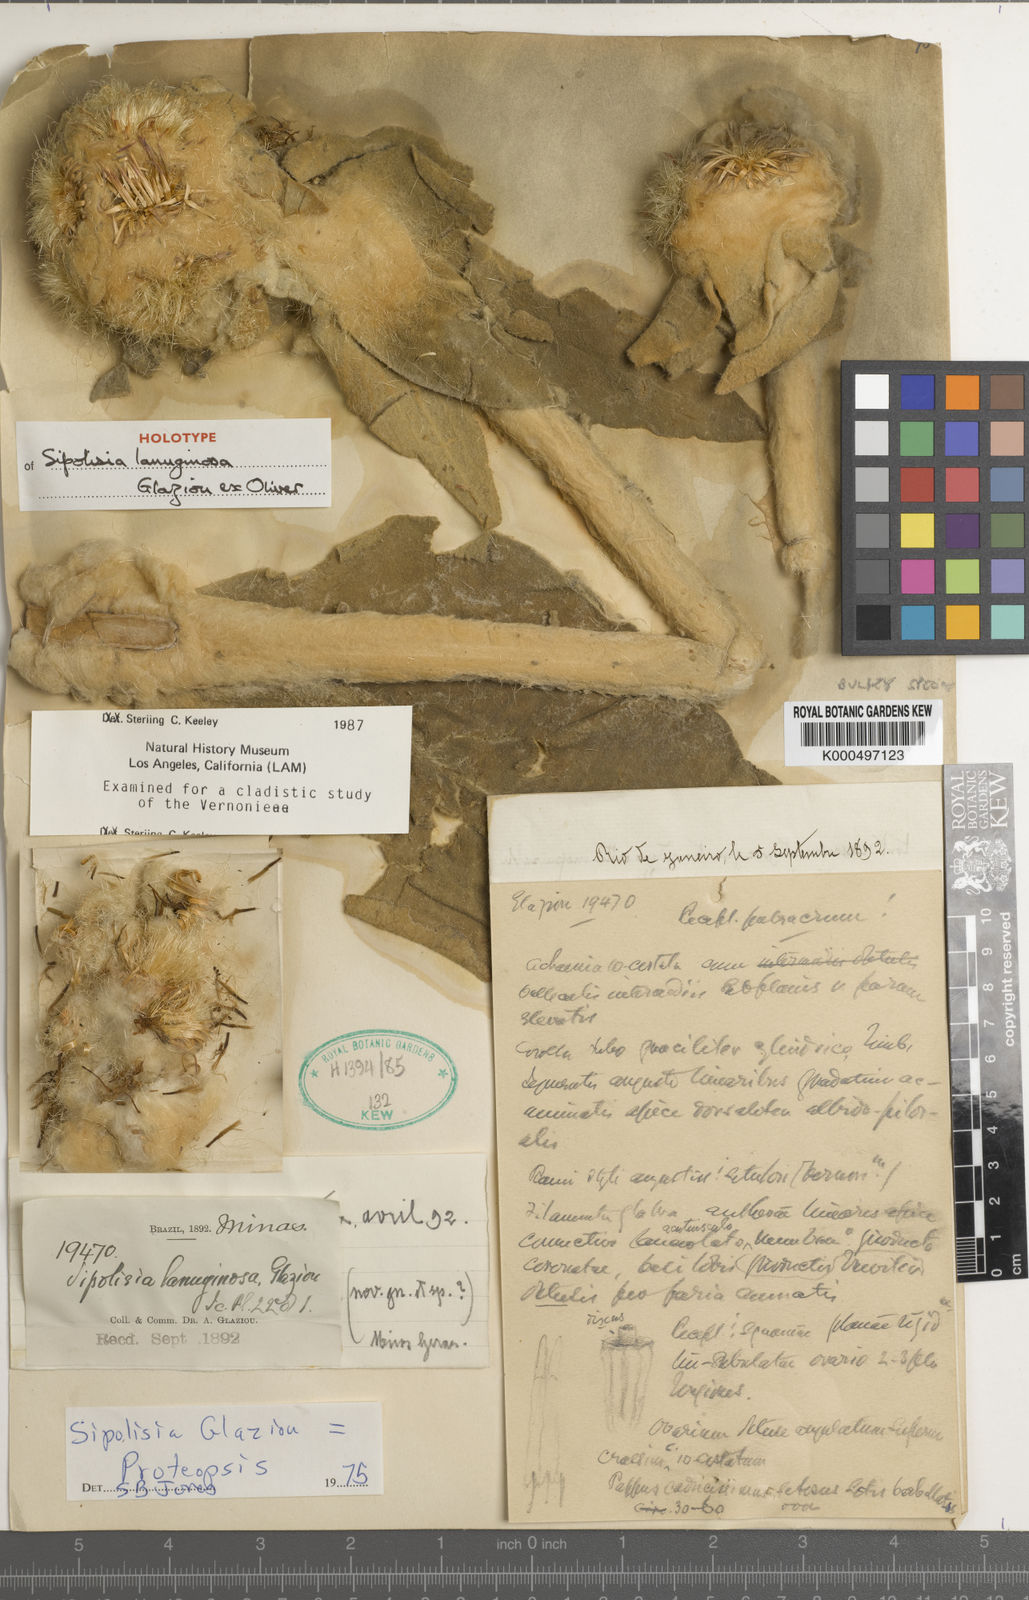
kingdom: Plantae
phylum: Tracheophyta
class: Magnoliopsida
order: Asterales
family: Asteraceae
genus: Heterocoma
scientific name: Heterocoma lanuginosa
